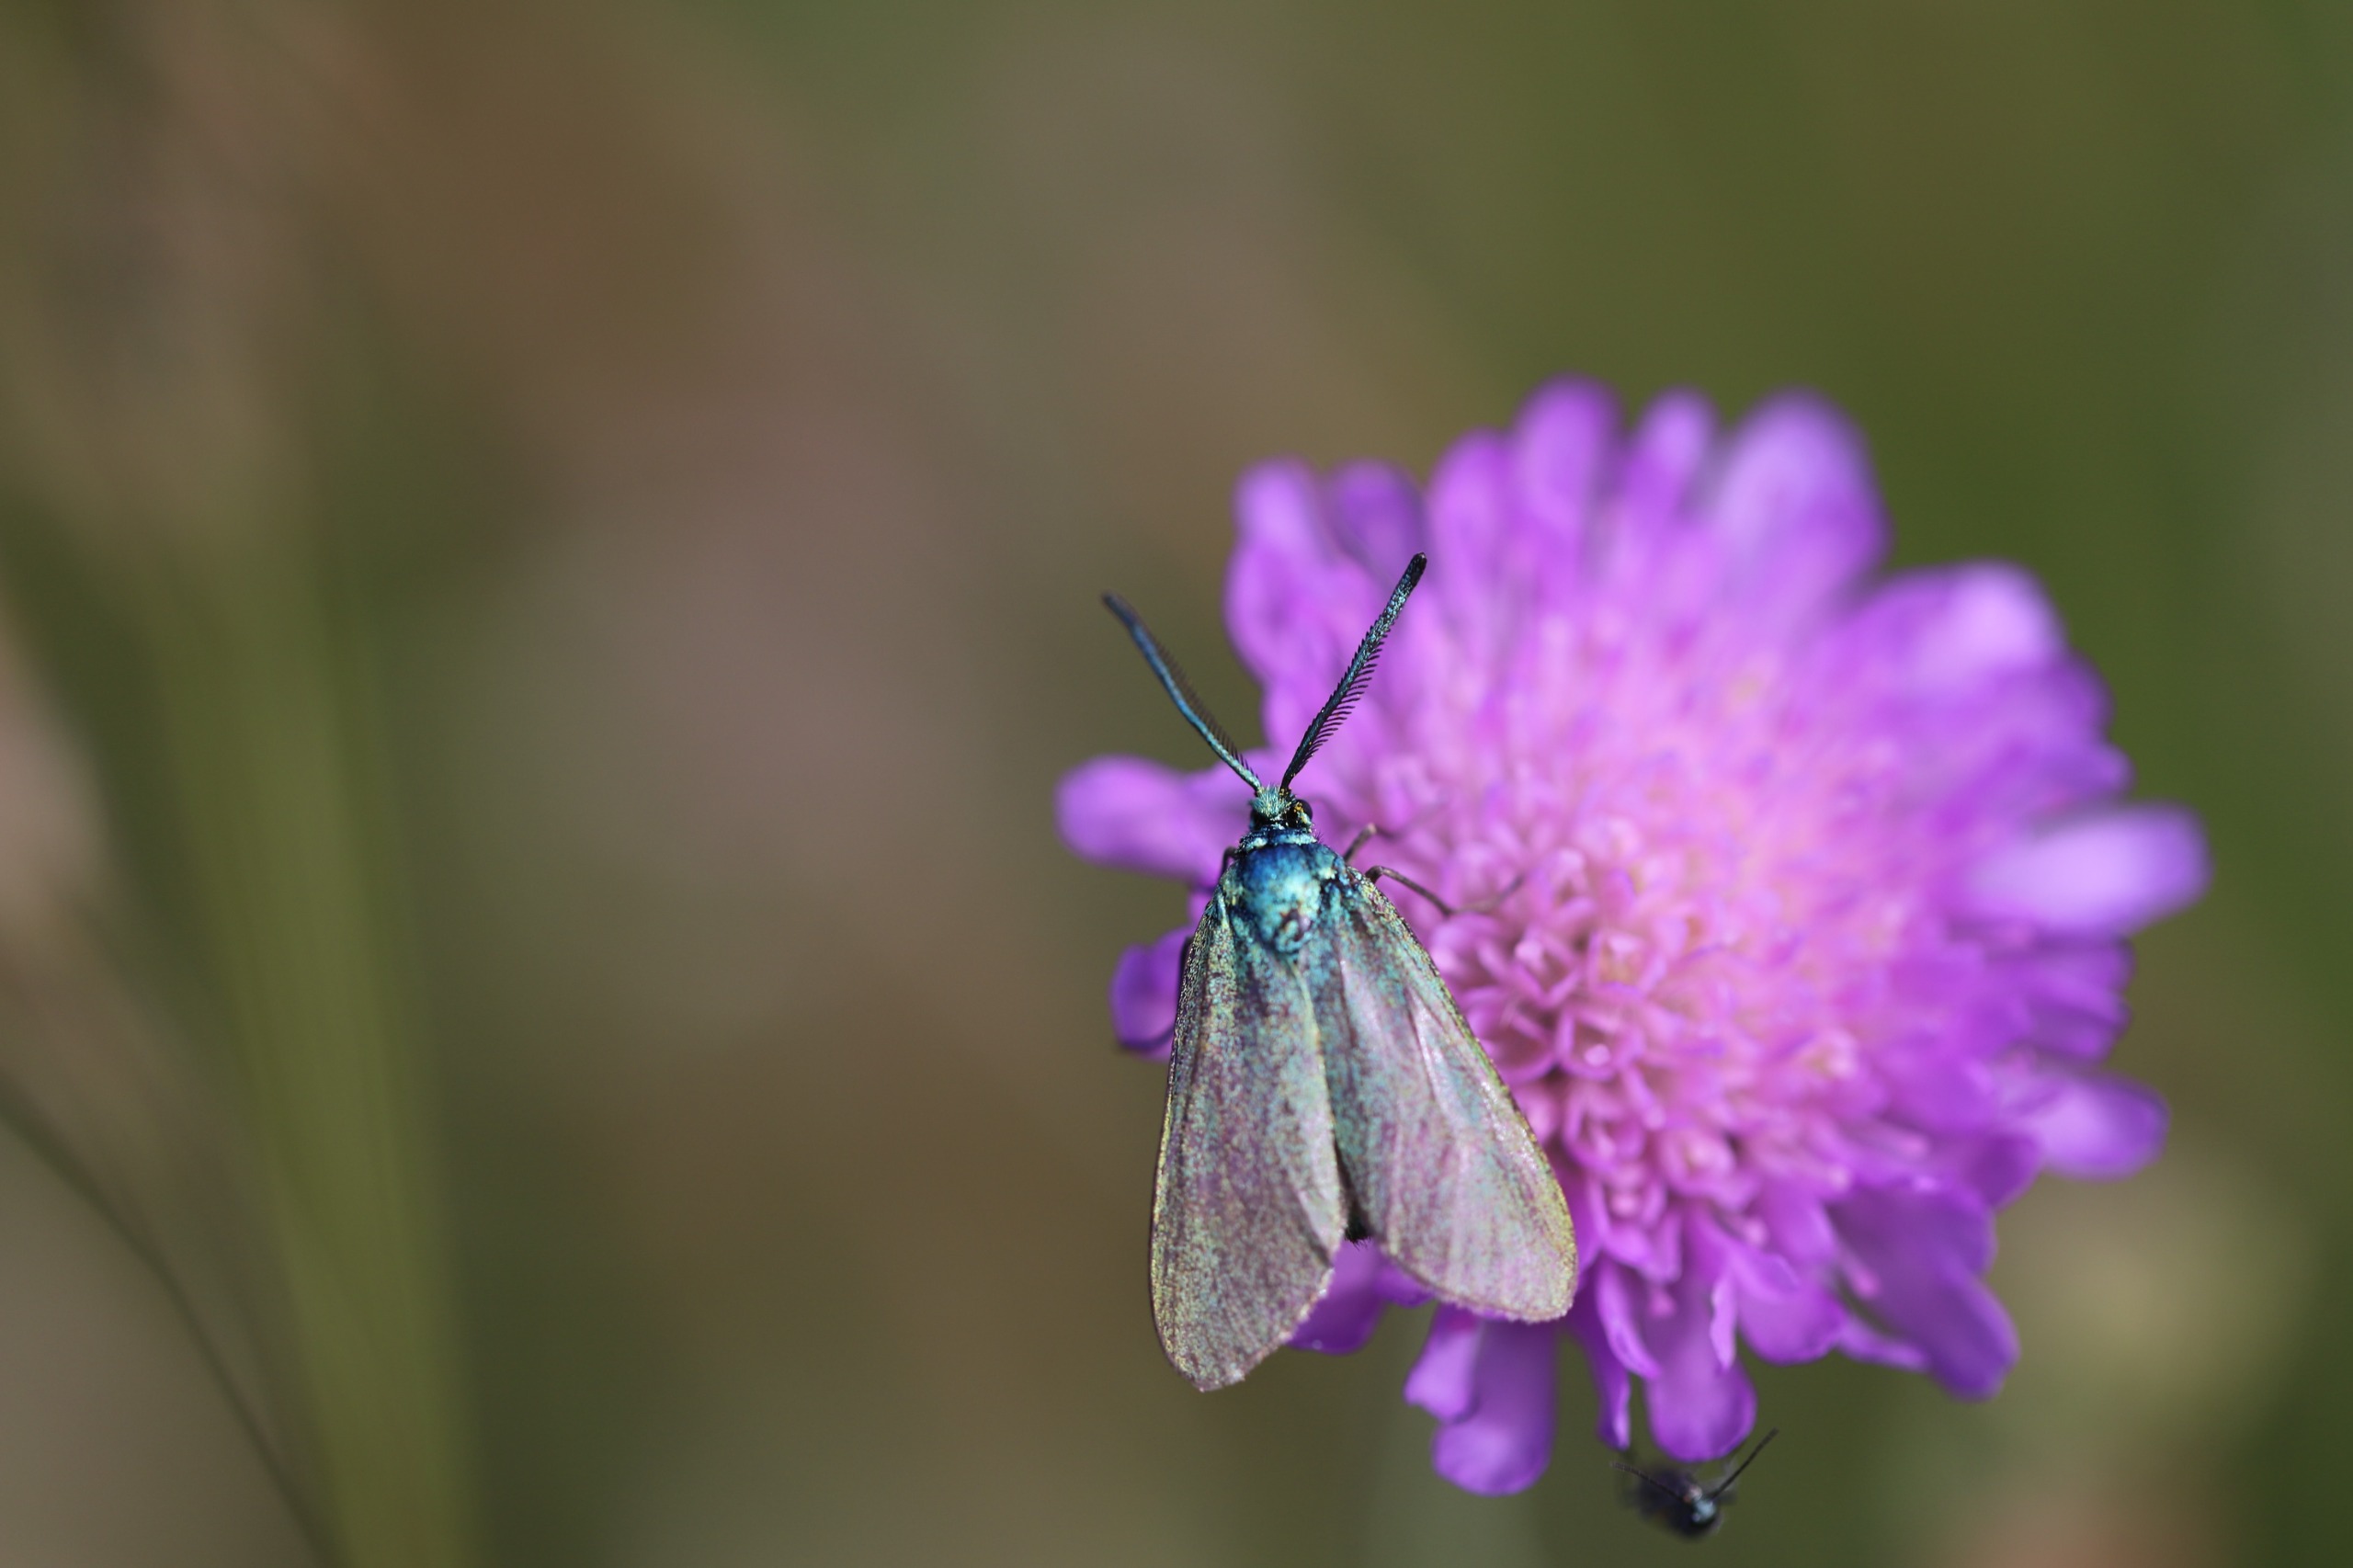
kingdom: Animalia
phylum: Arthropoda
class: Insecta
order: Lepidoptera
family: Zygaenidae
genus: Adscita
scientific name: Adscita statices
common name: Metalvinge
